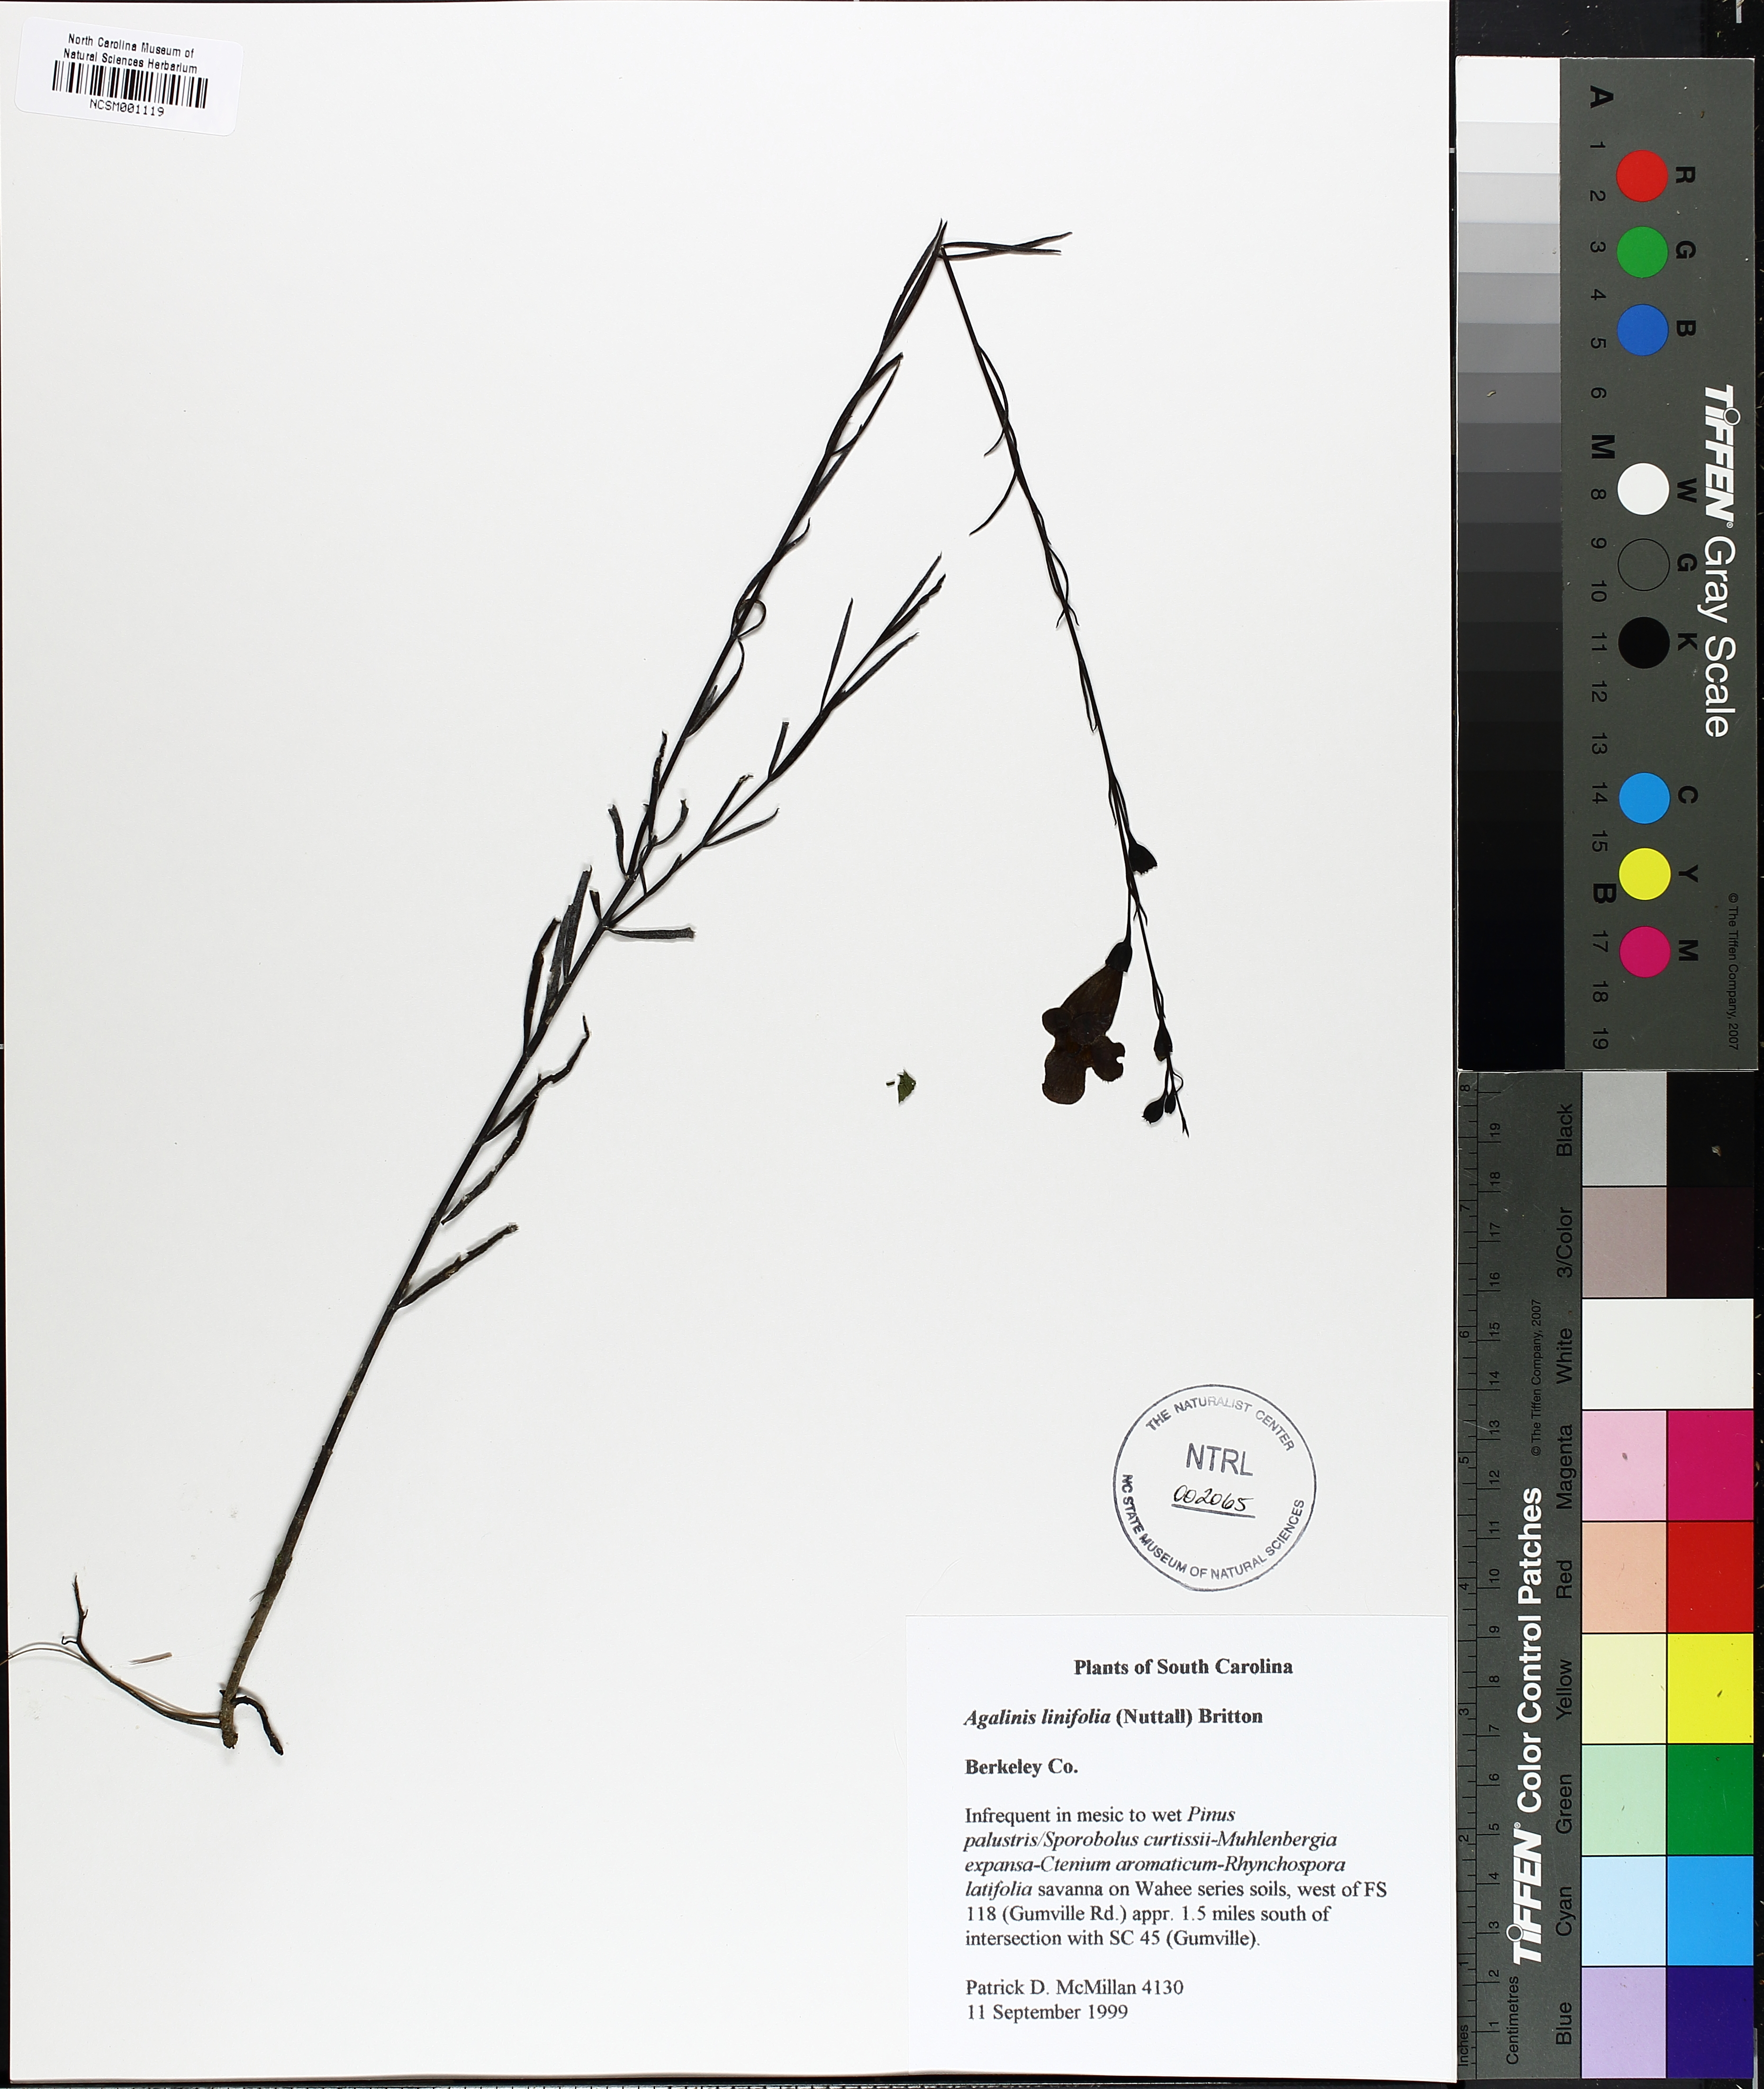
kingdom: Plantae
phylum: Tracheophyta
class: Magnoliopsida
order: Lamiales
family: Orobanchaceae
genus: Agalinis
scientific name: Agalinis linifolia
